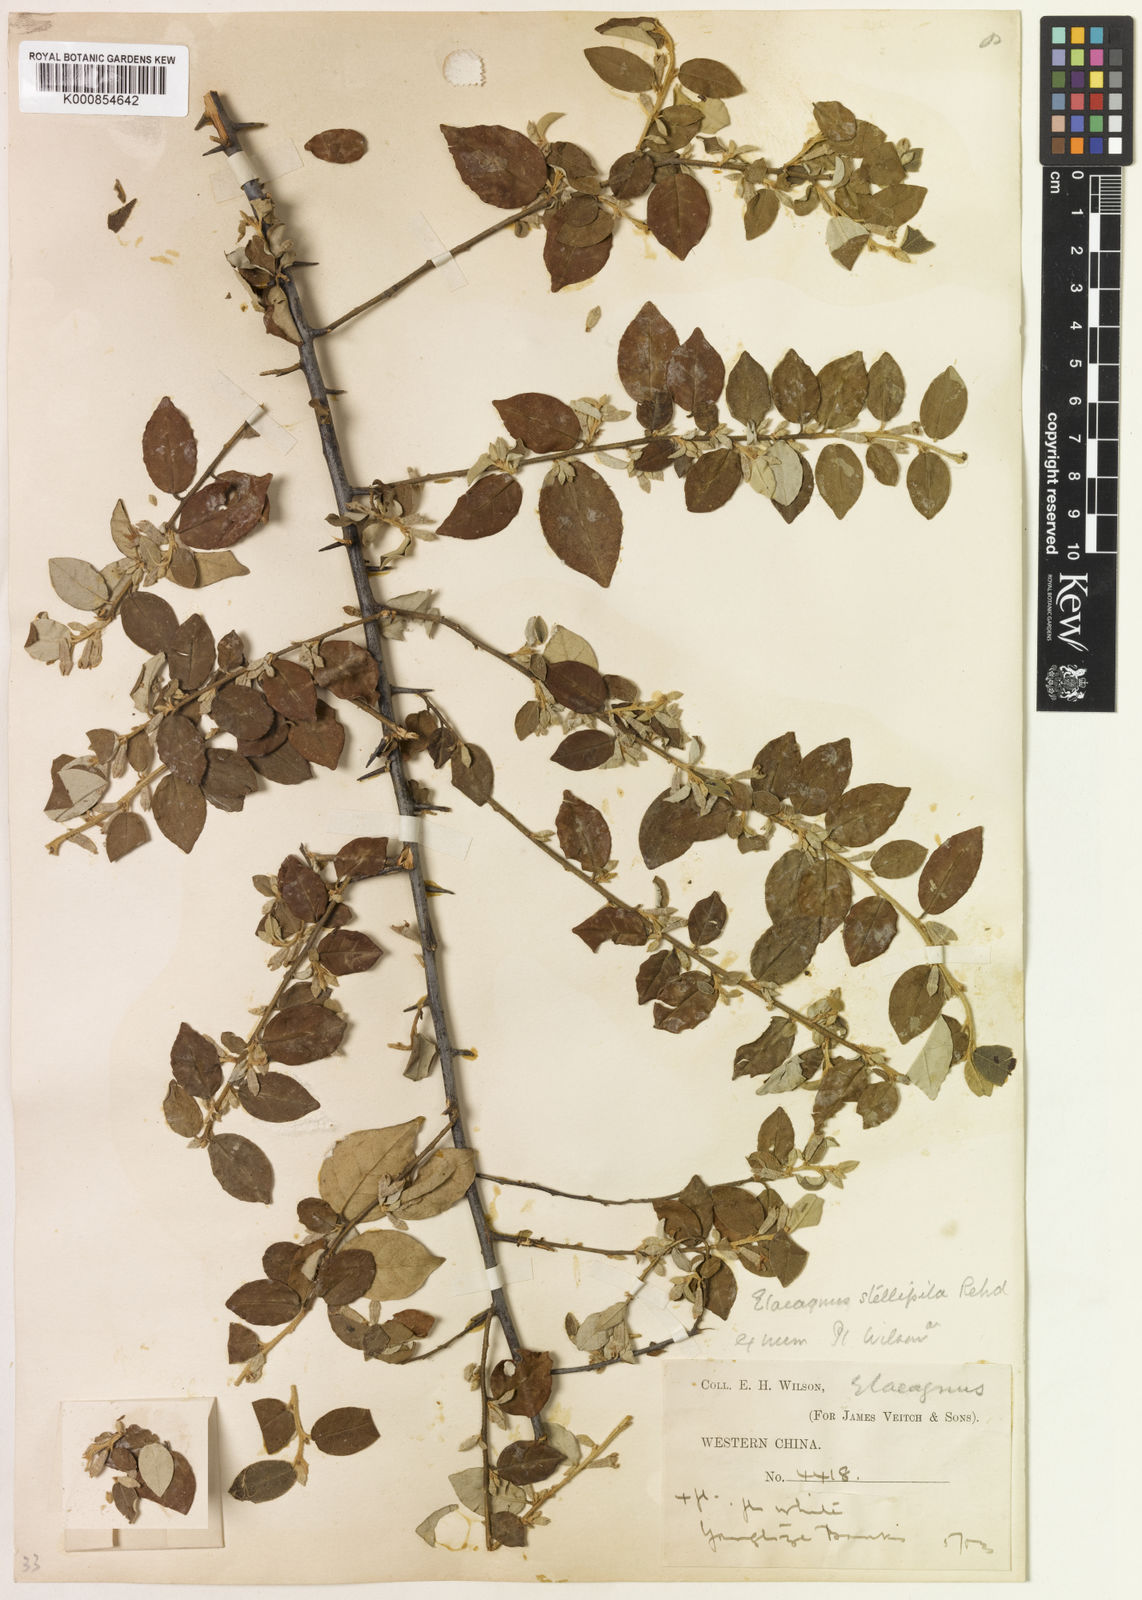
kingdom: Plantae
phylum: Tracheophyta
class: Magnoliopsida
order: Rosales
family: Elaeagnaceae
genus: Elaeagnus
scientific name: Elaeagnus stellipila
